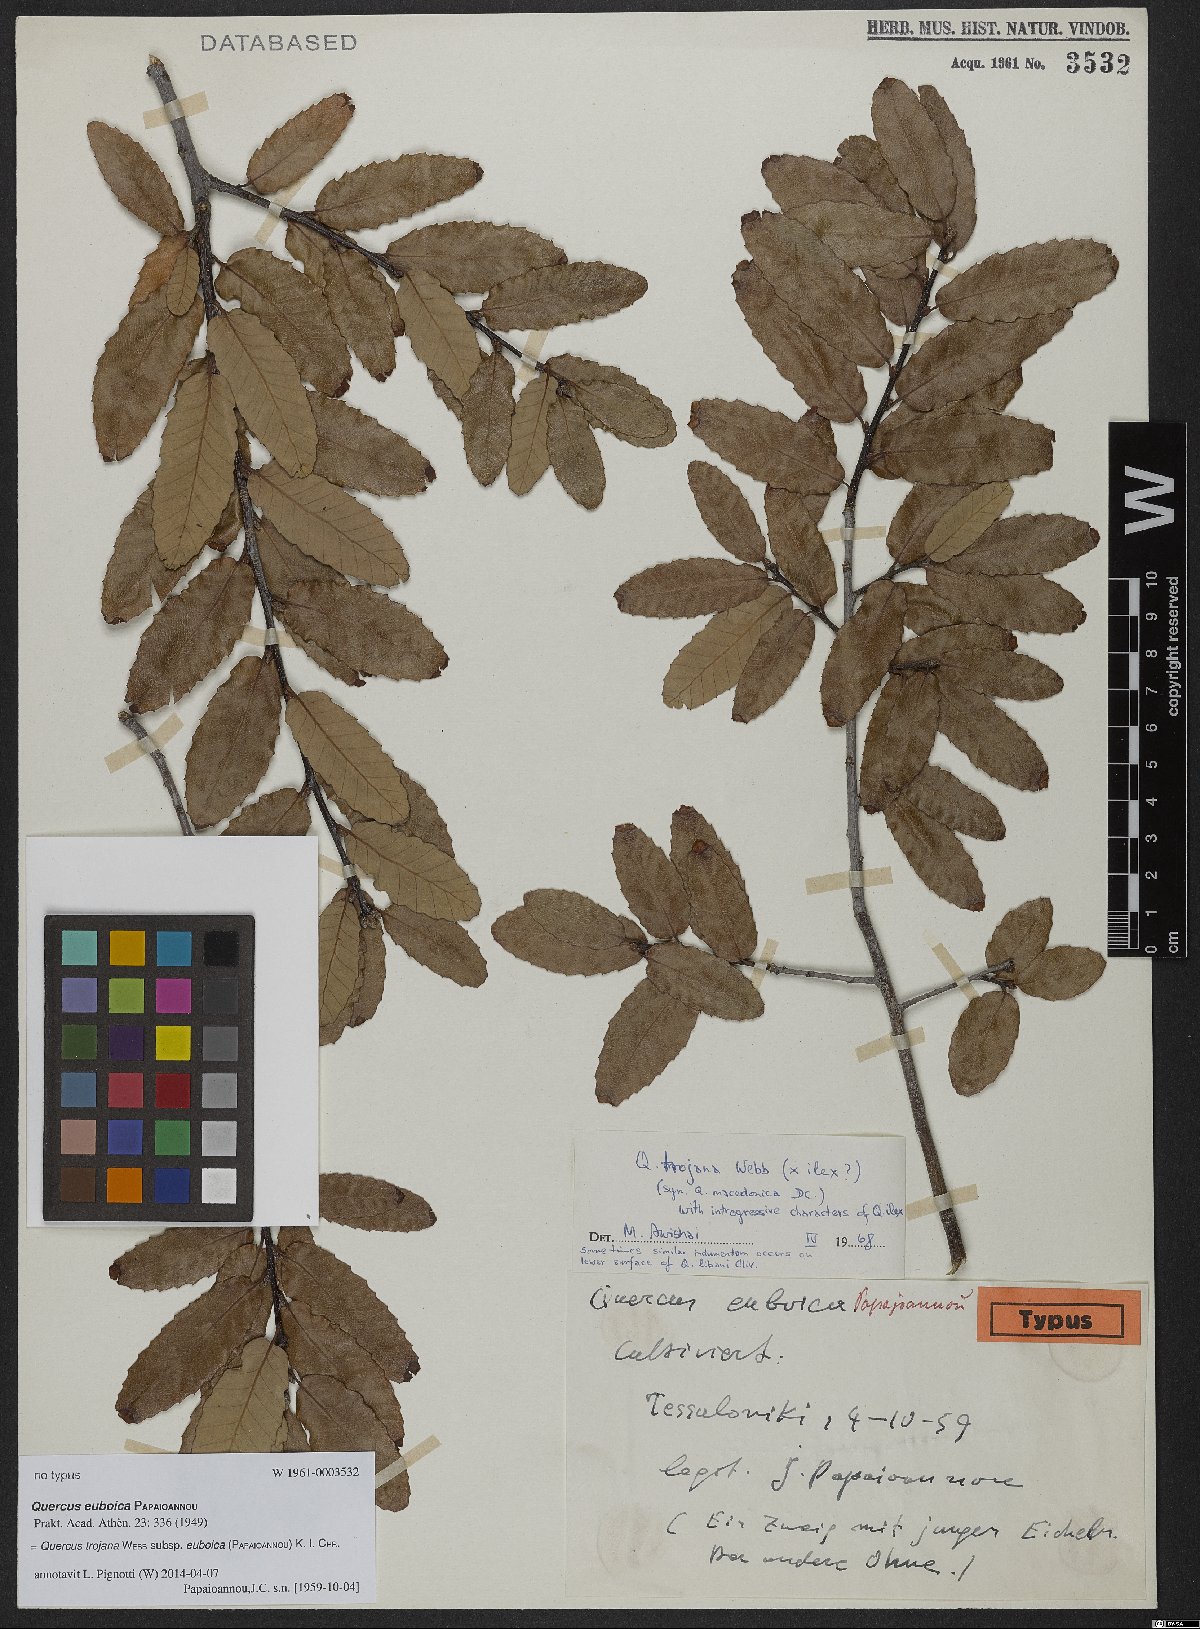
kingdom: Plantae
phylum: Tracheophyta
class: Magnoliopsida
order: Fagales
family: Fagaceae
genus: Quercus
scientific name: Quercus trojana
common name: Macedonian oak
